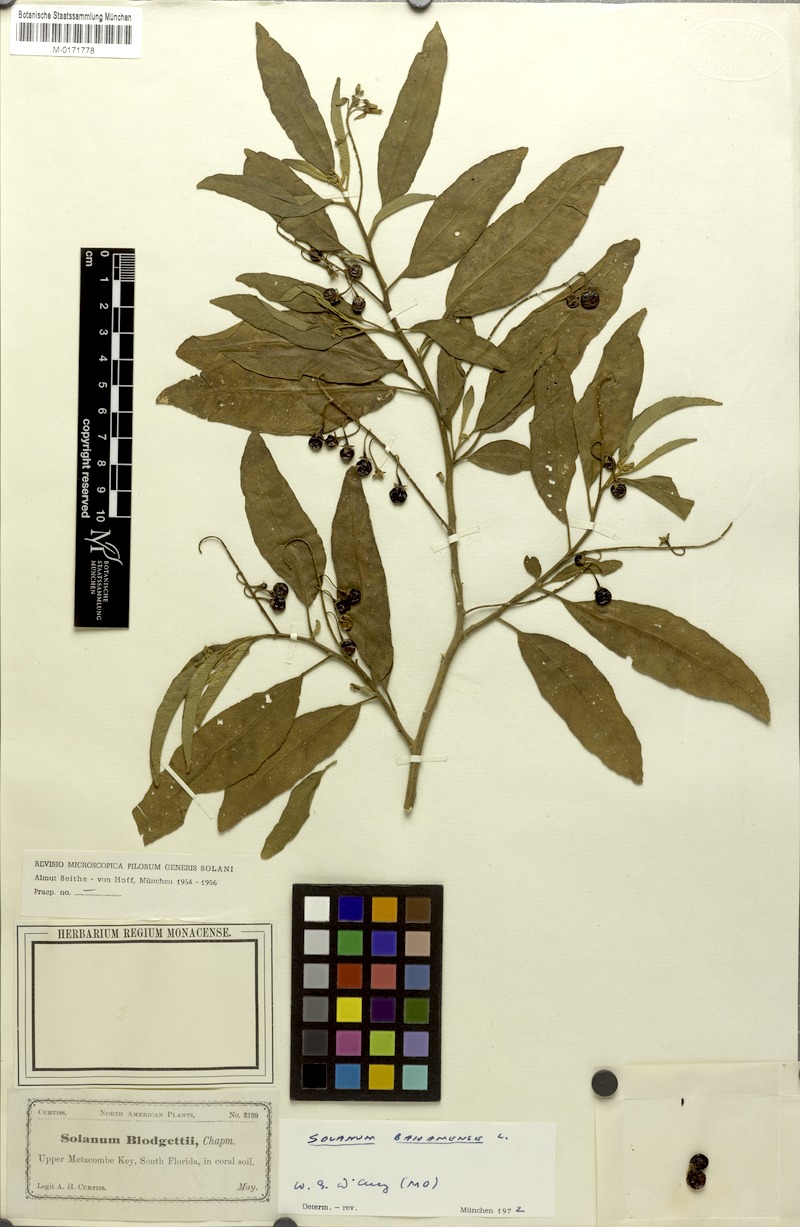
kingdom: Plantae
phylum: Tracheophyta
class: Magnoliopsida
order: Solanales
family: Solanaceae
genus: Solanum
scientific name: Solanum bahamense
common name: Canker-berry
